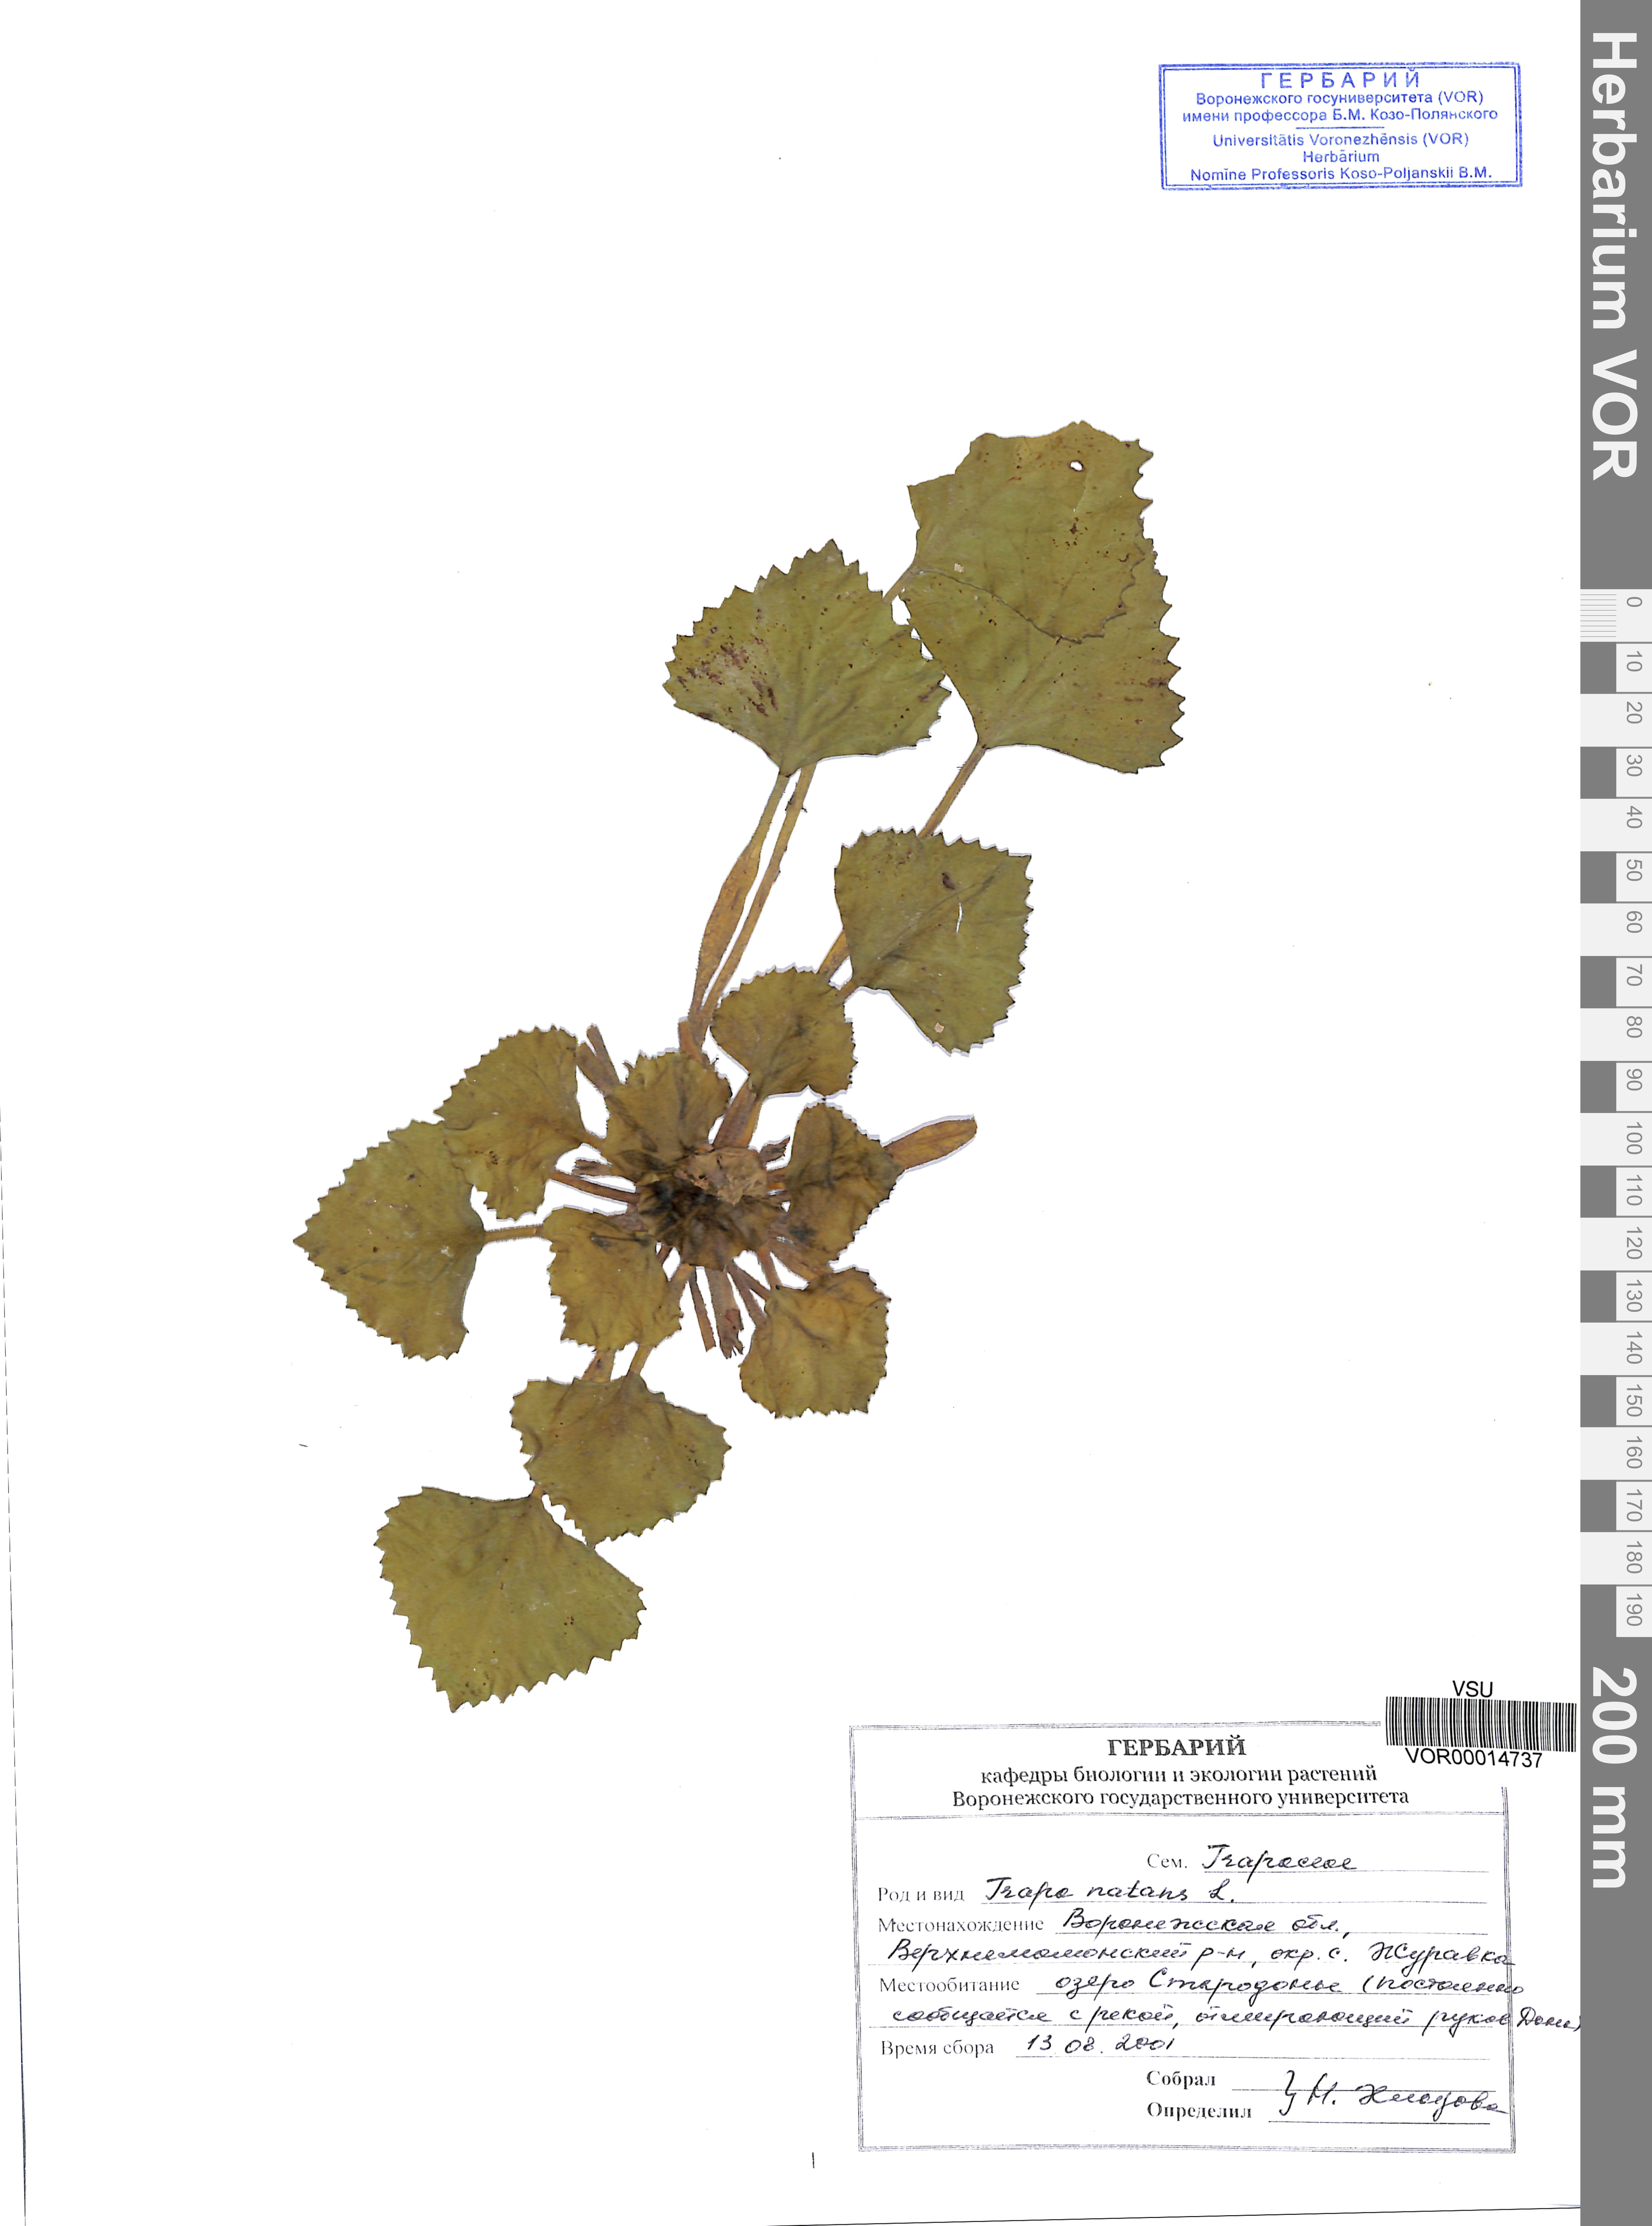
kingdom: Plantae
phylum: Tracheophyta
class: Magnoliopsida
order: Myrtales
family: Lythraceae
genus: Trapa
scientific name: Trapa natans
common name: Water chestnut
